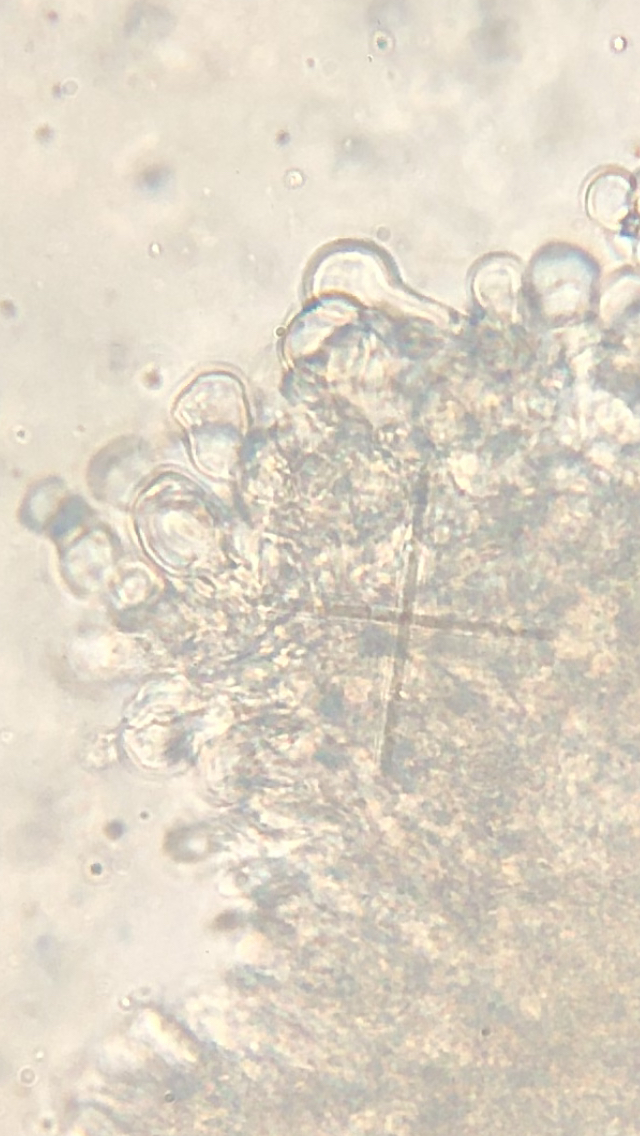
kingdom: Fungi
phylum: Basidiomycota
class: Agaricomycetes
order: Agaricales
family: Omphalotaceae
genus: Gymnopus
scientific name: Gymnopus aquosus
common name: bleg fladhat
